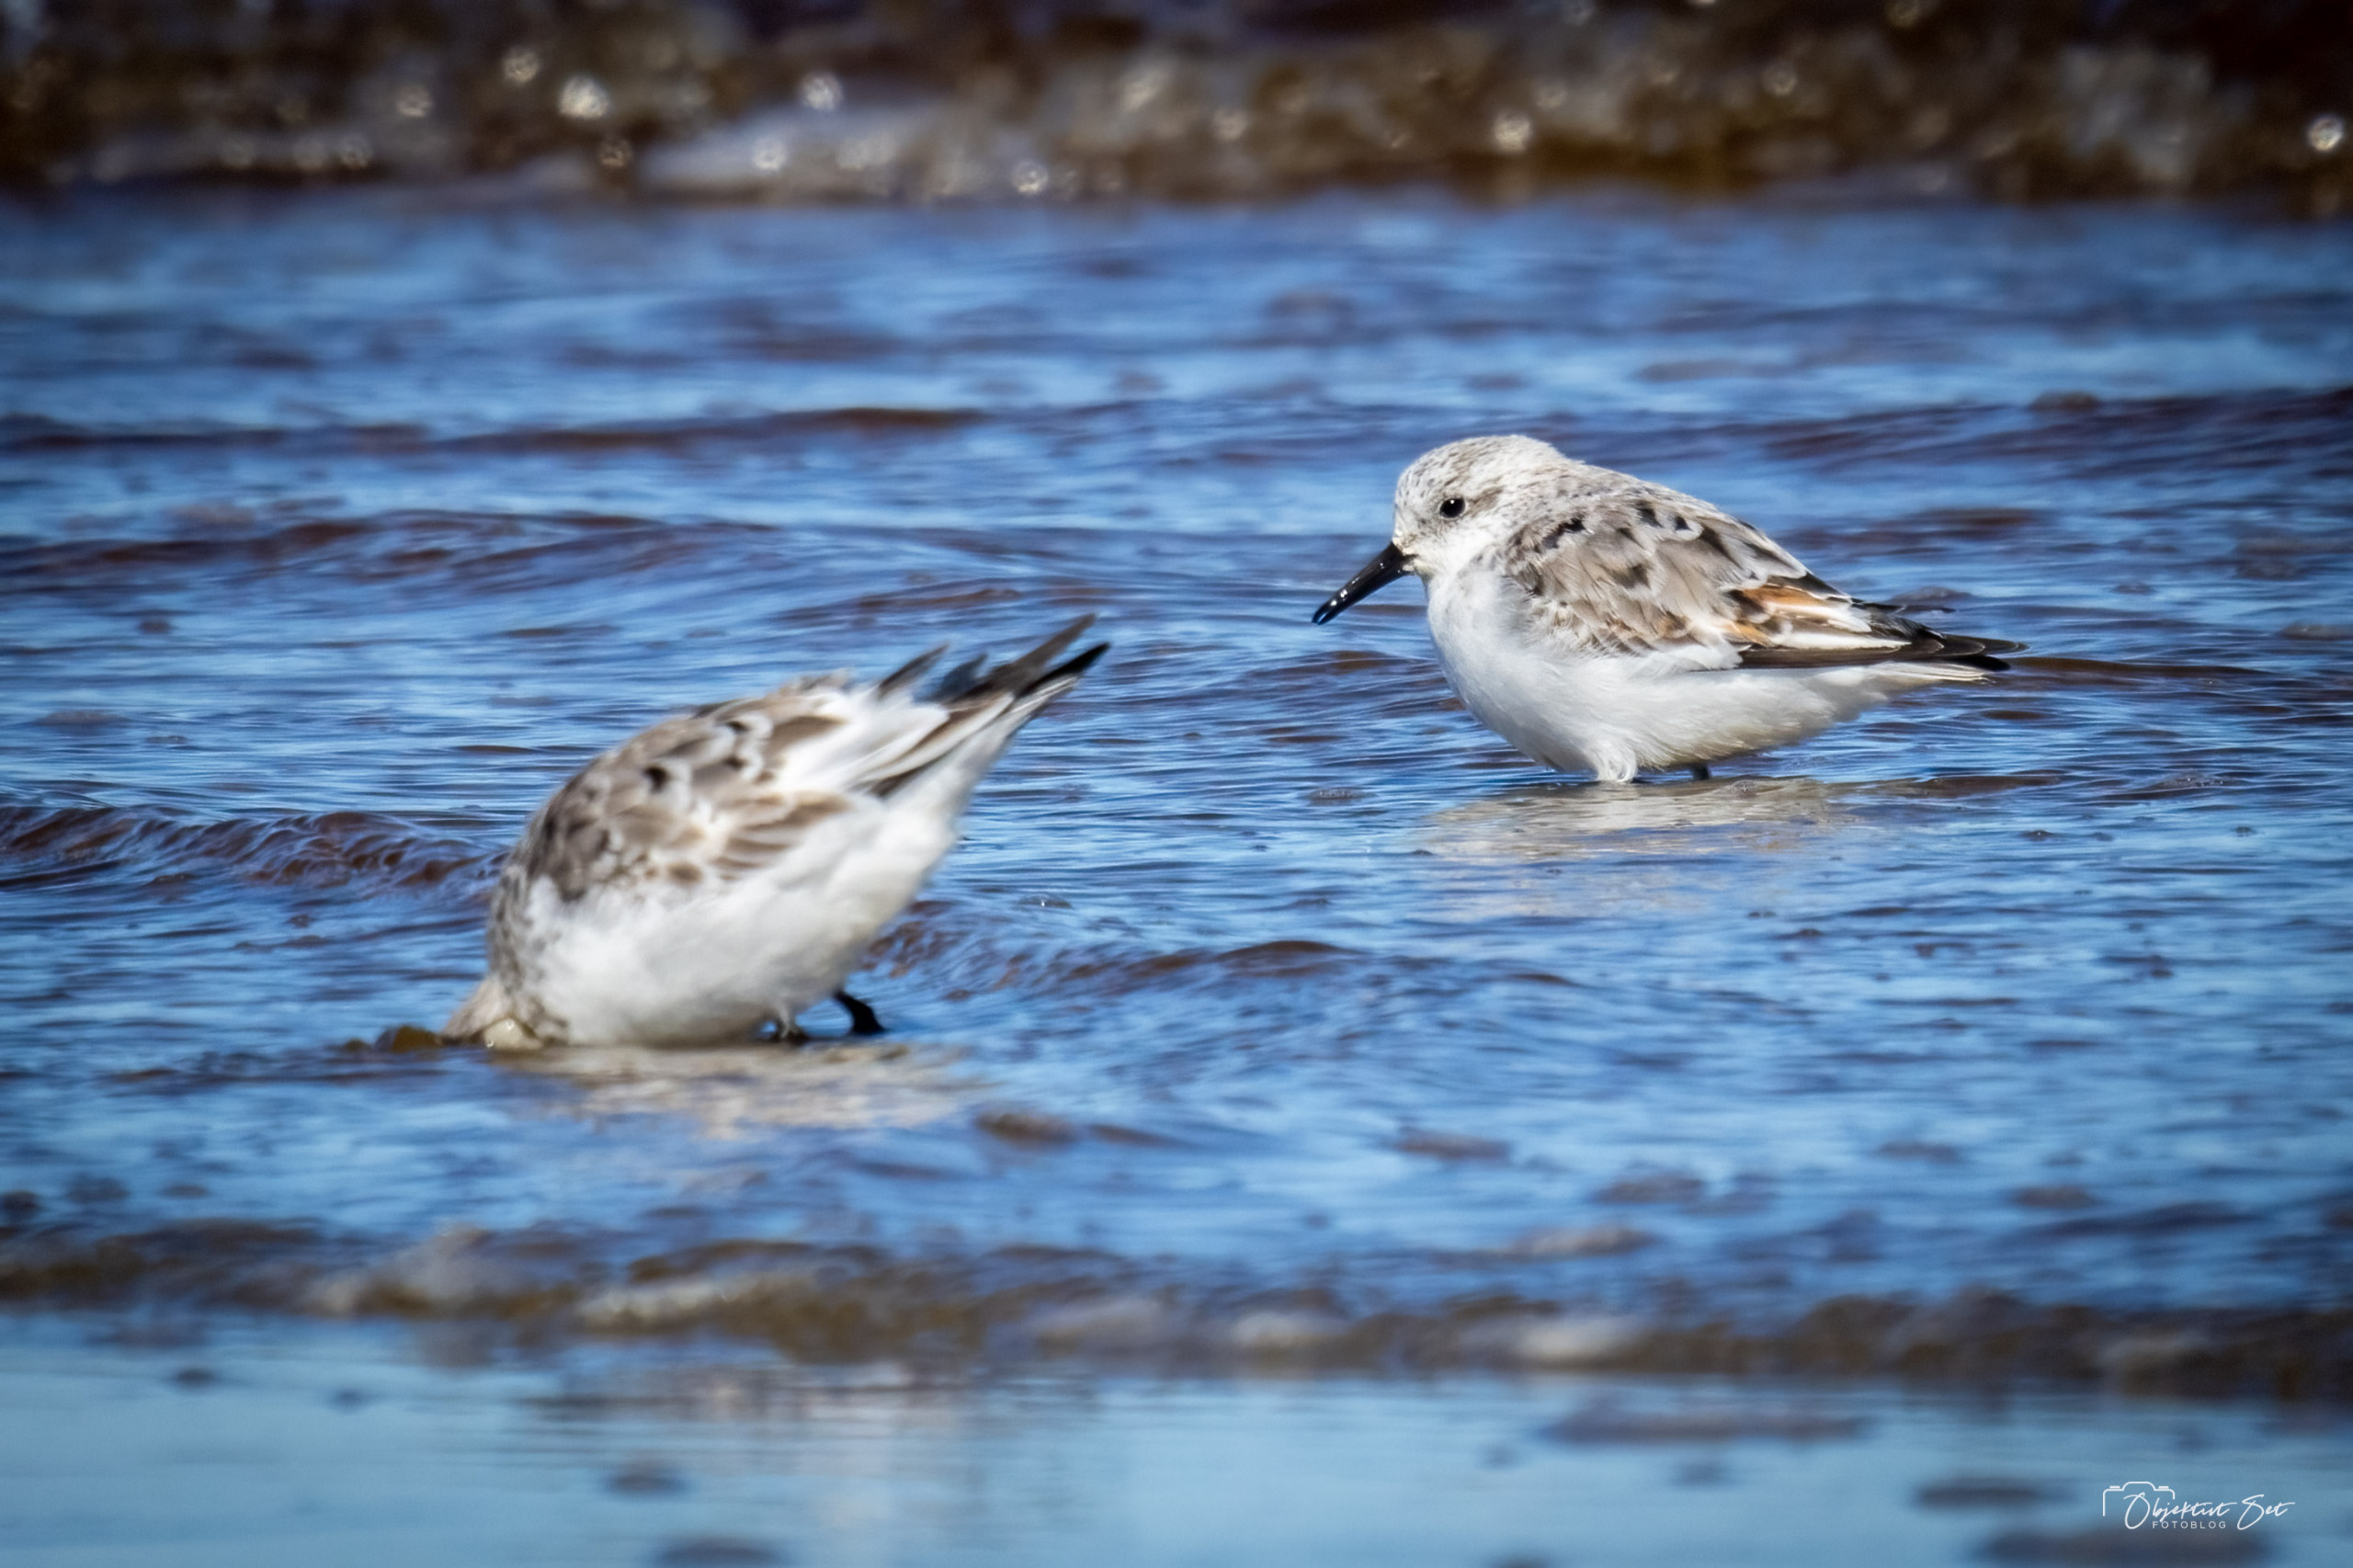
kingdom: Animalia
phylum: Chordata
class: Aves
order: Charadriiformes
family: Scolopacidae
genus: Calidris
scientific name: Calidris alba
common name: Sandløber
